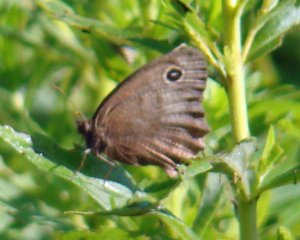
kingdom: Animalia
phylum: Arthropoda
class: Insecta
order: Lepidoptera
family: Nymphalidae
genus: Cercyonis
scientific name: Cercyonis pegala
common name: Common Wood-Nymph
